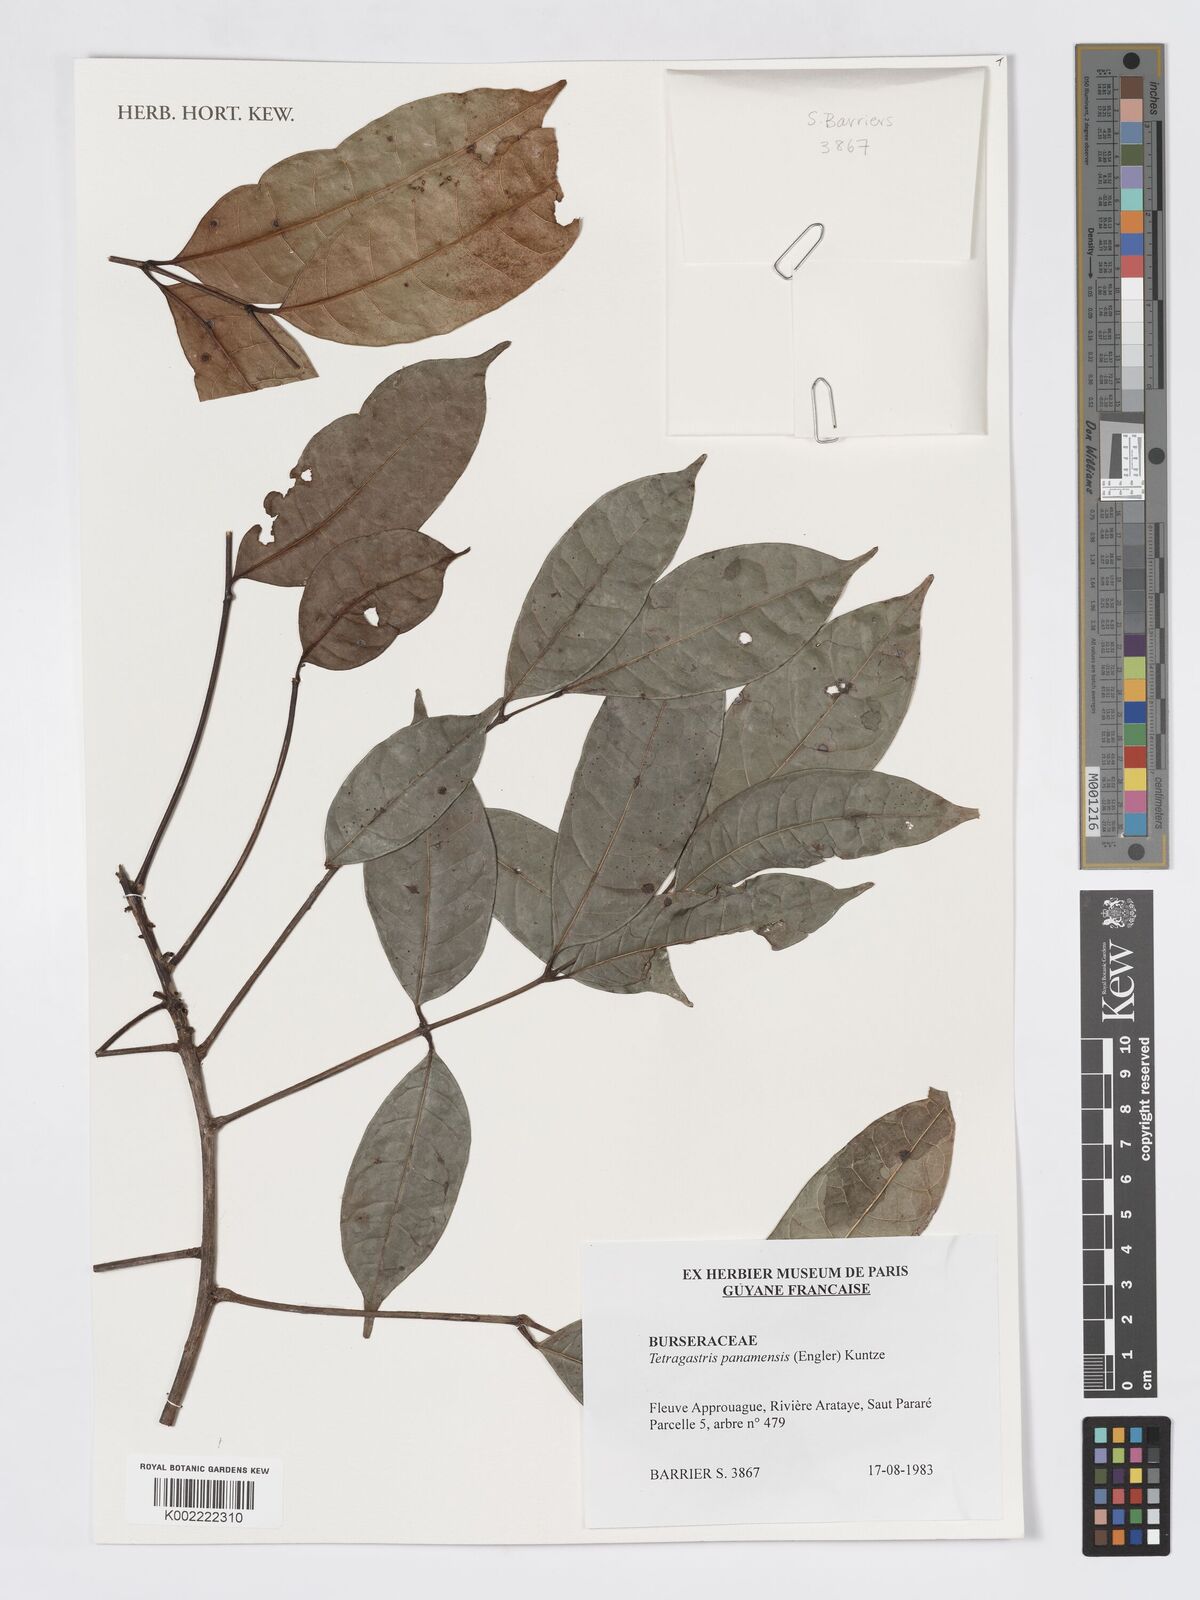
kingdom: Plantae
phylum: Tracheophyta
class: Magnoliopsida
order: Sapindales
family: Burseraceae
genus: Tetragastris
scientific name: Tetragastris panamensis
